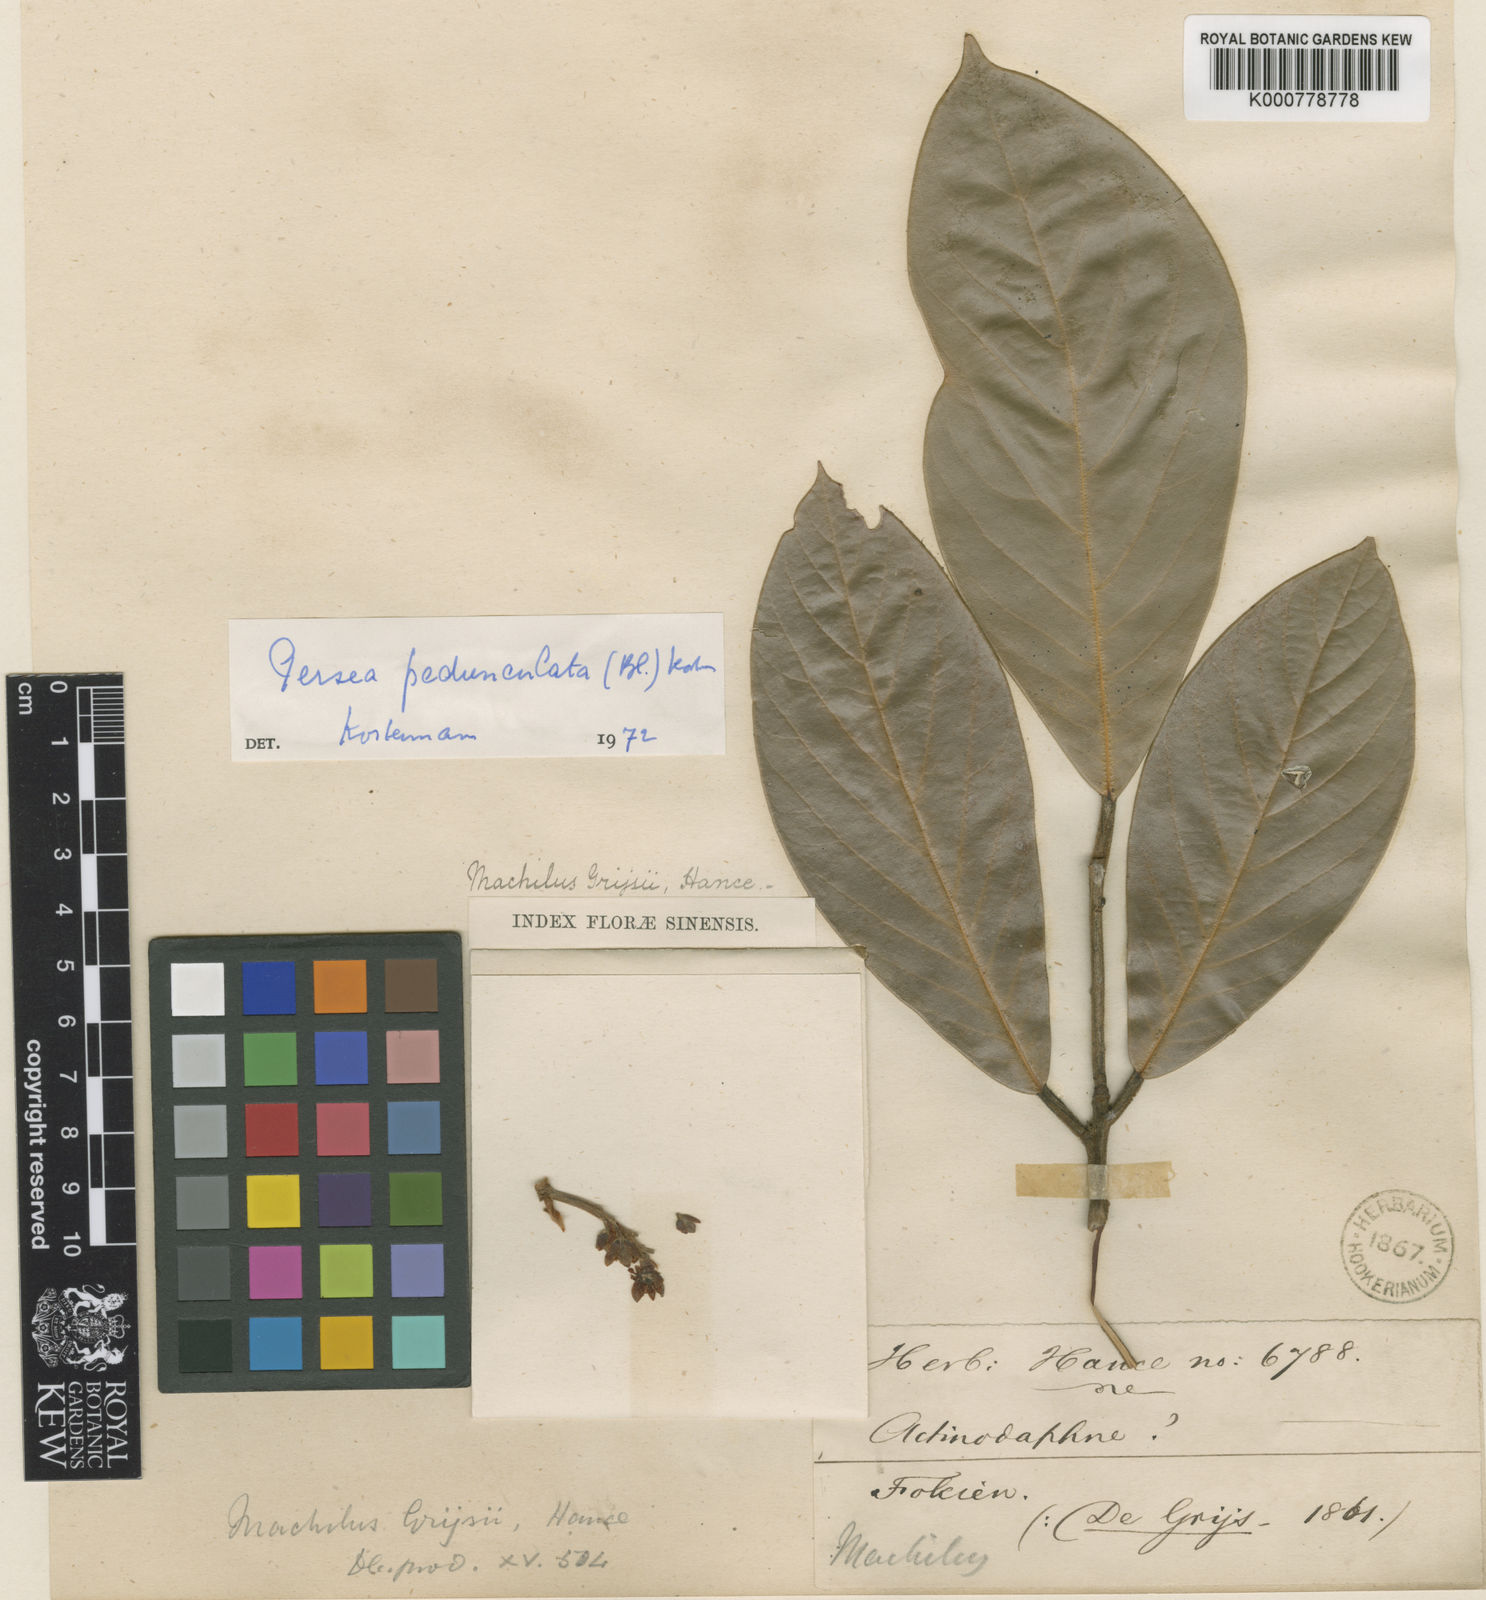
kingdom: Plantae
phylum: Tracheophyta
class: Magnoliopsida
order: Laurales
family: Lauraceae
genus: Actinodaphne
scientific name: Actinodaphne pedunculata
